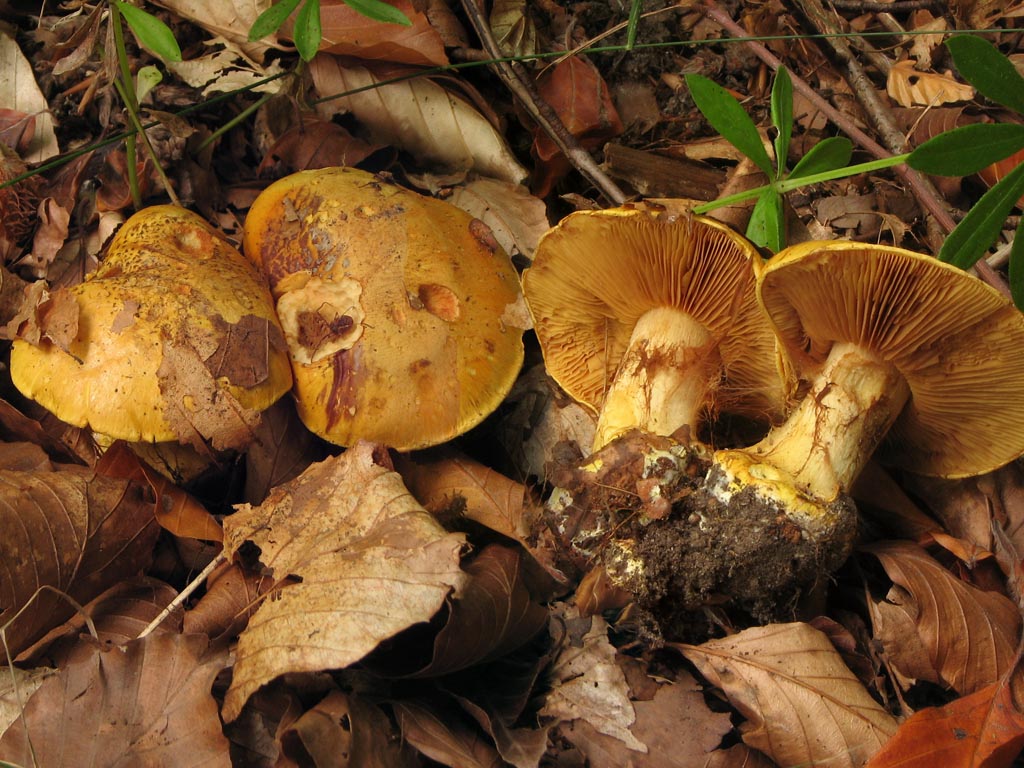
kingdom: Fungi
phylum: Basidiomycota
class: Agaricomycetes
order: Agaricales
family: Cortinariaceae
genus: Calonarius
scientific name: Calonarius olearioides
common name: safran-slørhat
